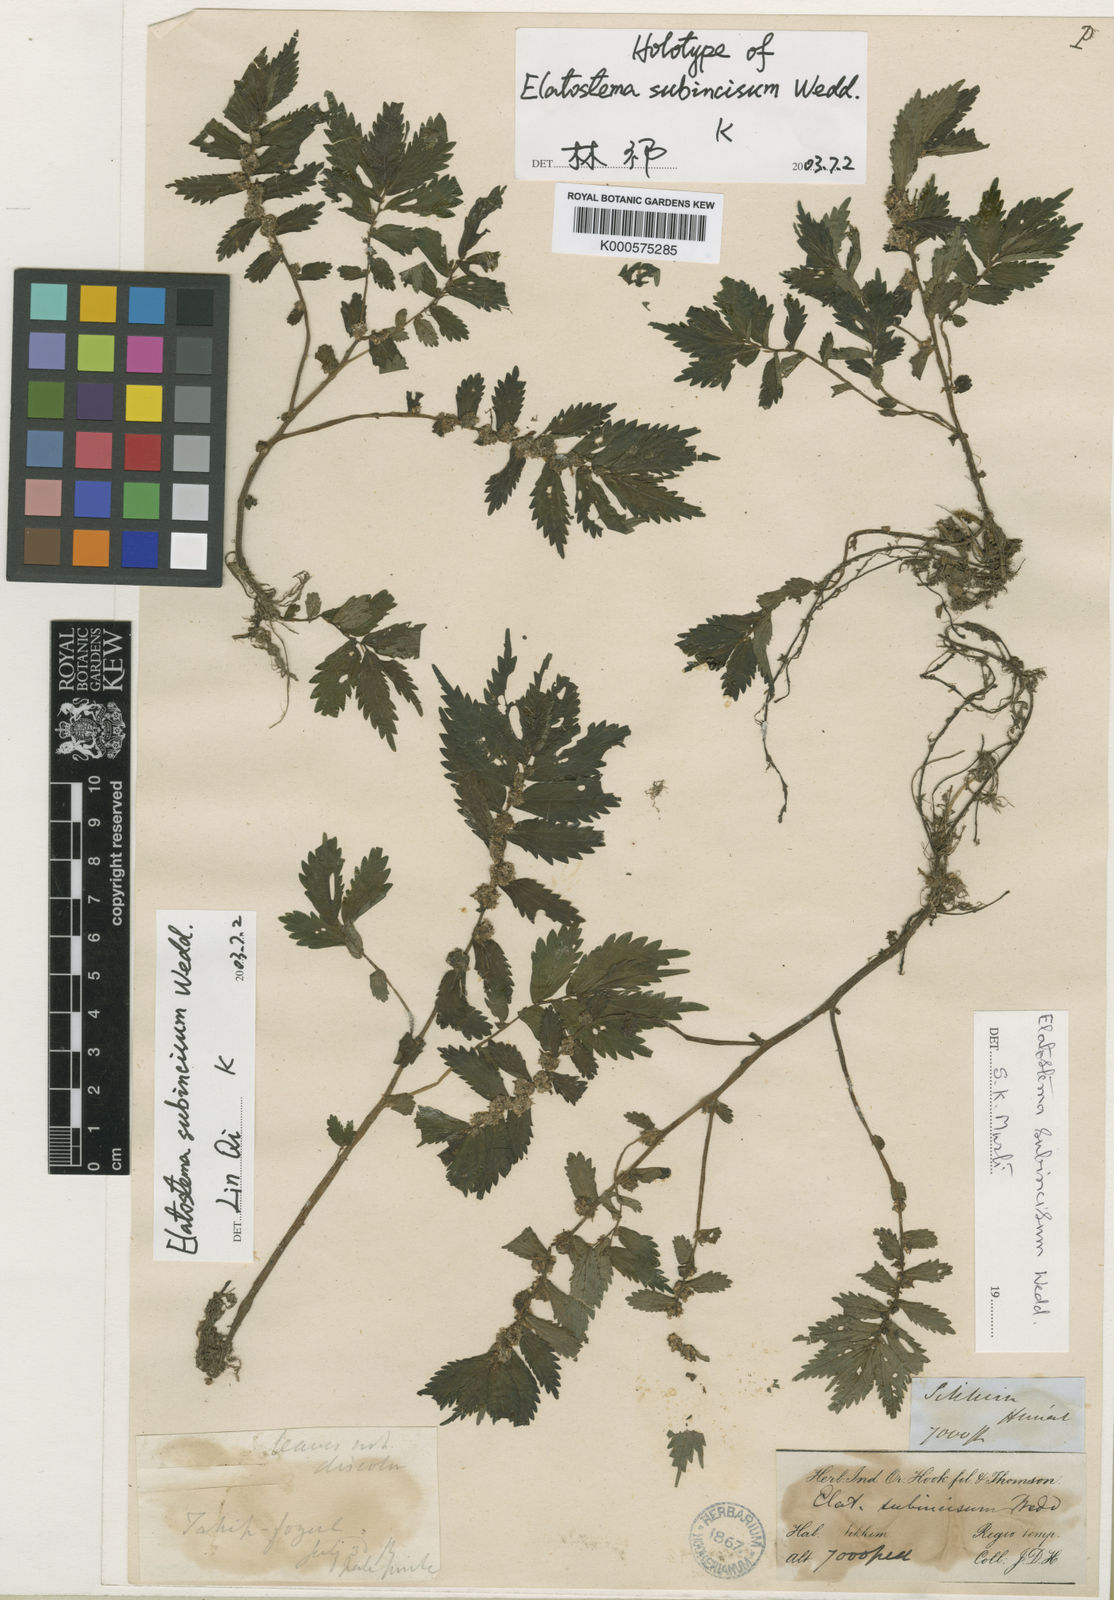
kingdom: Plantae
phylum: Tracheophyta
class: Magnoliopsida
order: Rosales
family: Urticaceae
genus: Elatostema
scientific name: Elatostema subincisum
